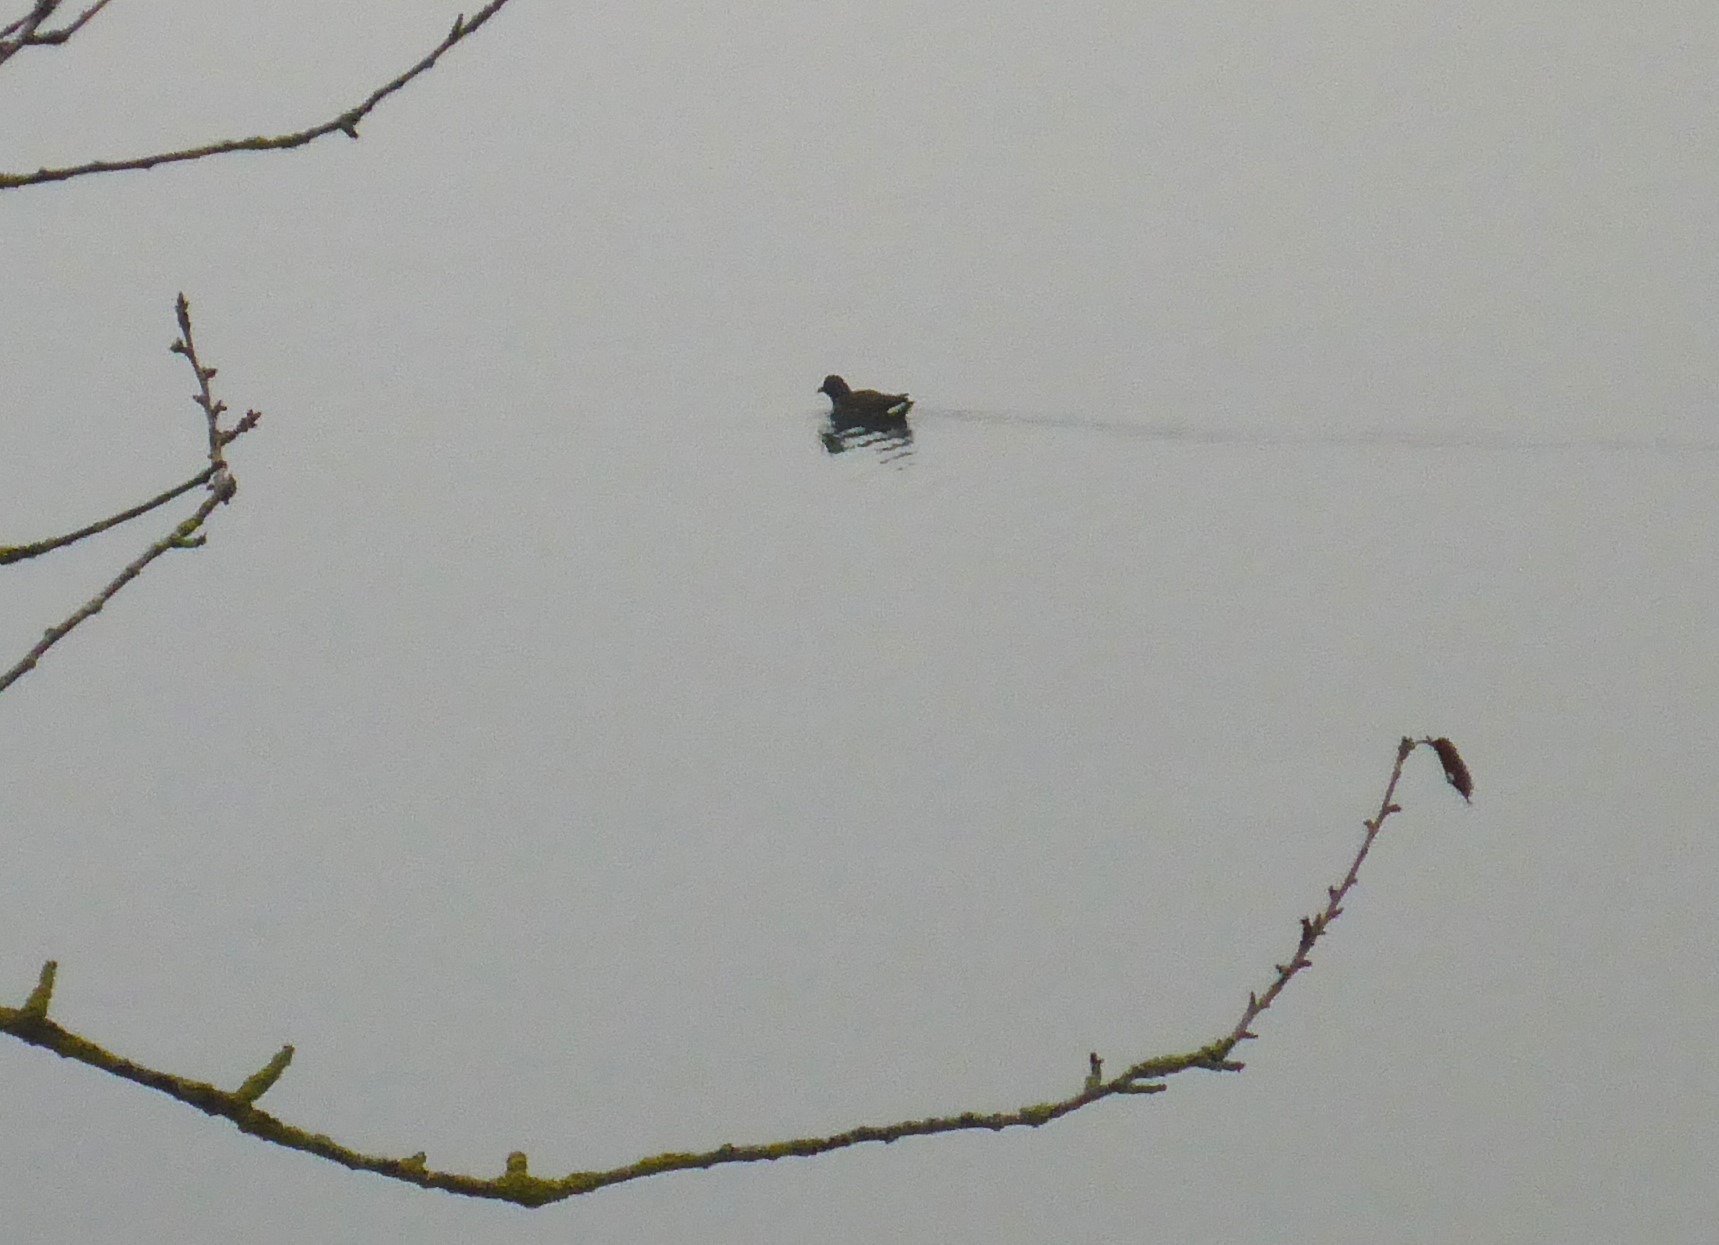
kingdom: Animalia
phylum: Chordata
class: Aves
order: Gruiformes
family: Rallidae
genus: Gallinula
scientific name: Gallinula chloropus
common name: Grønbenet rørhøne
